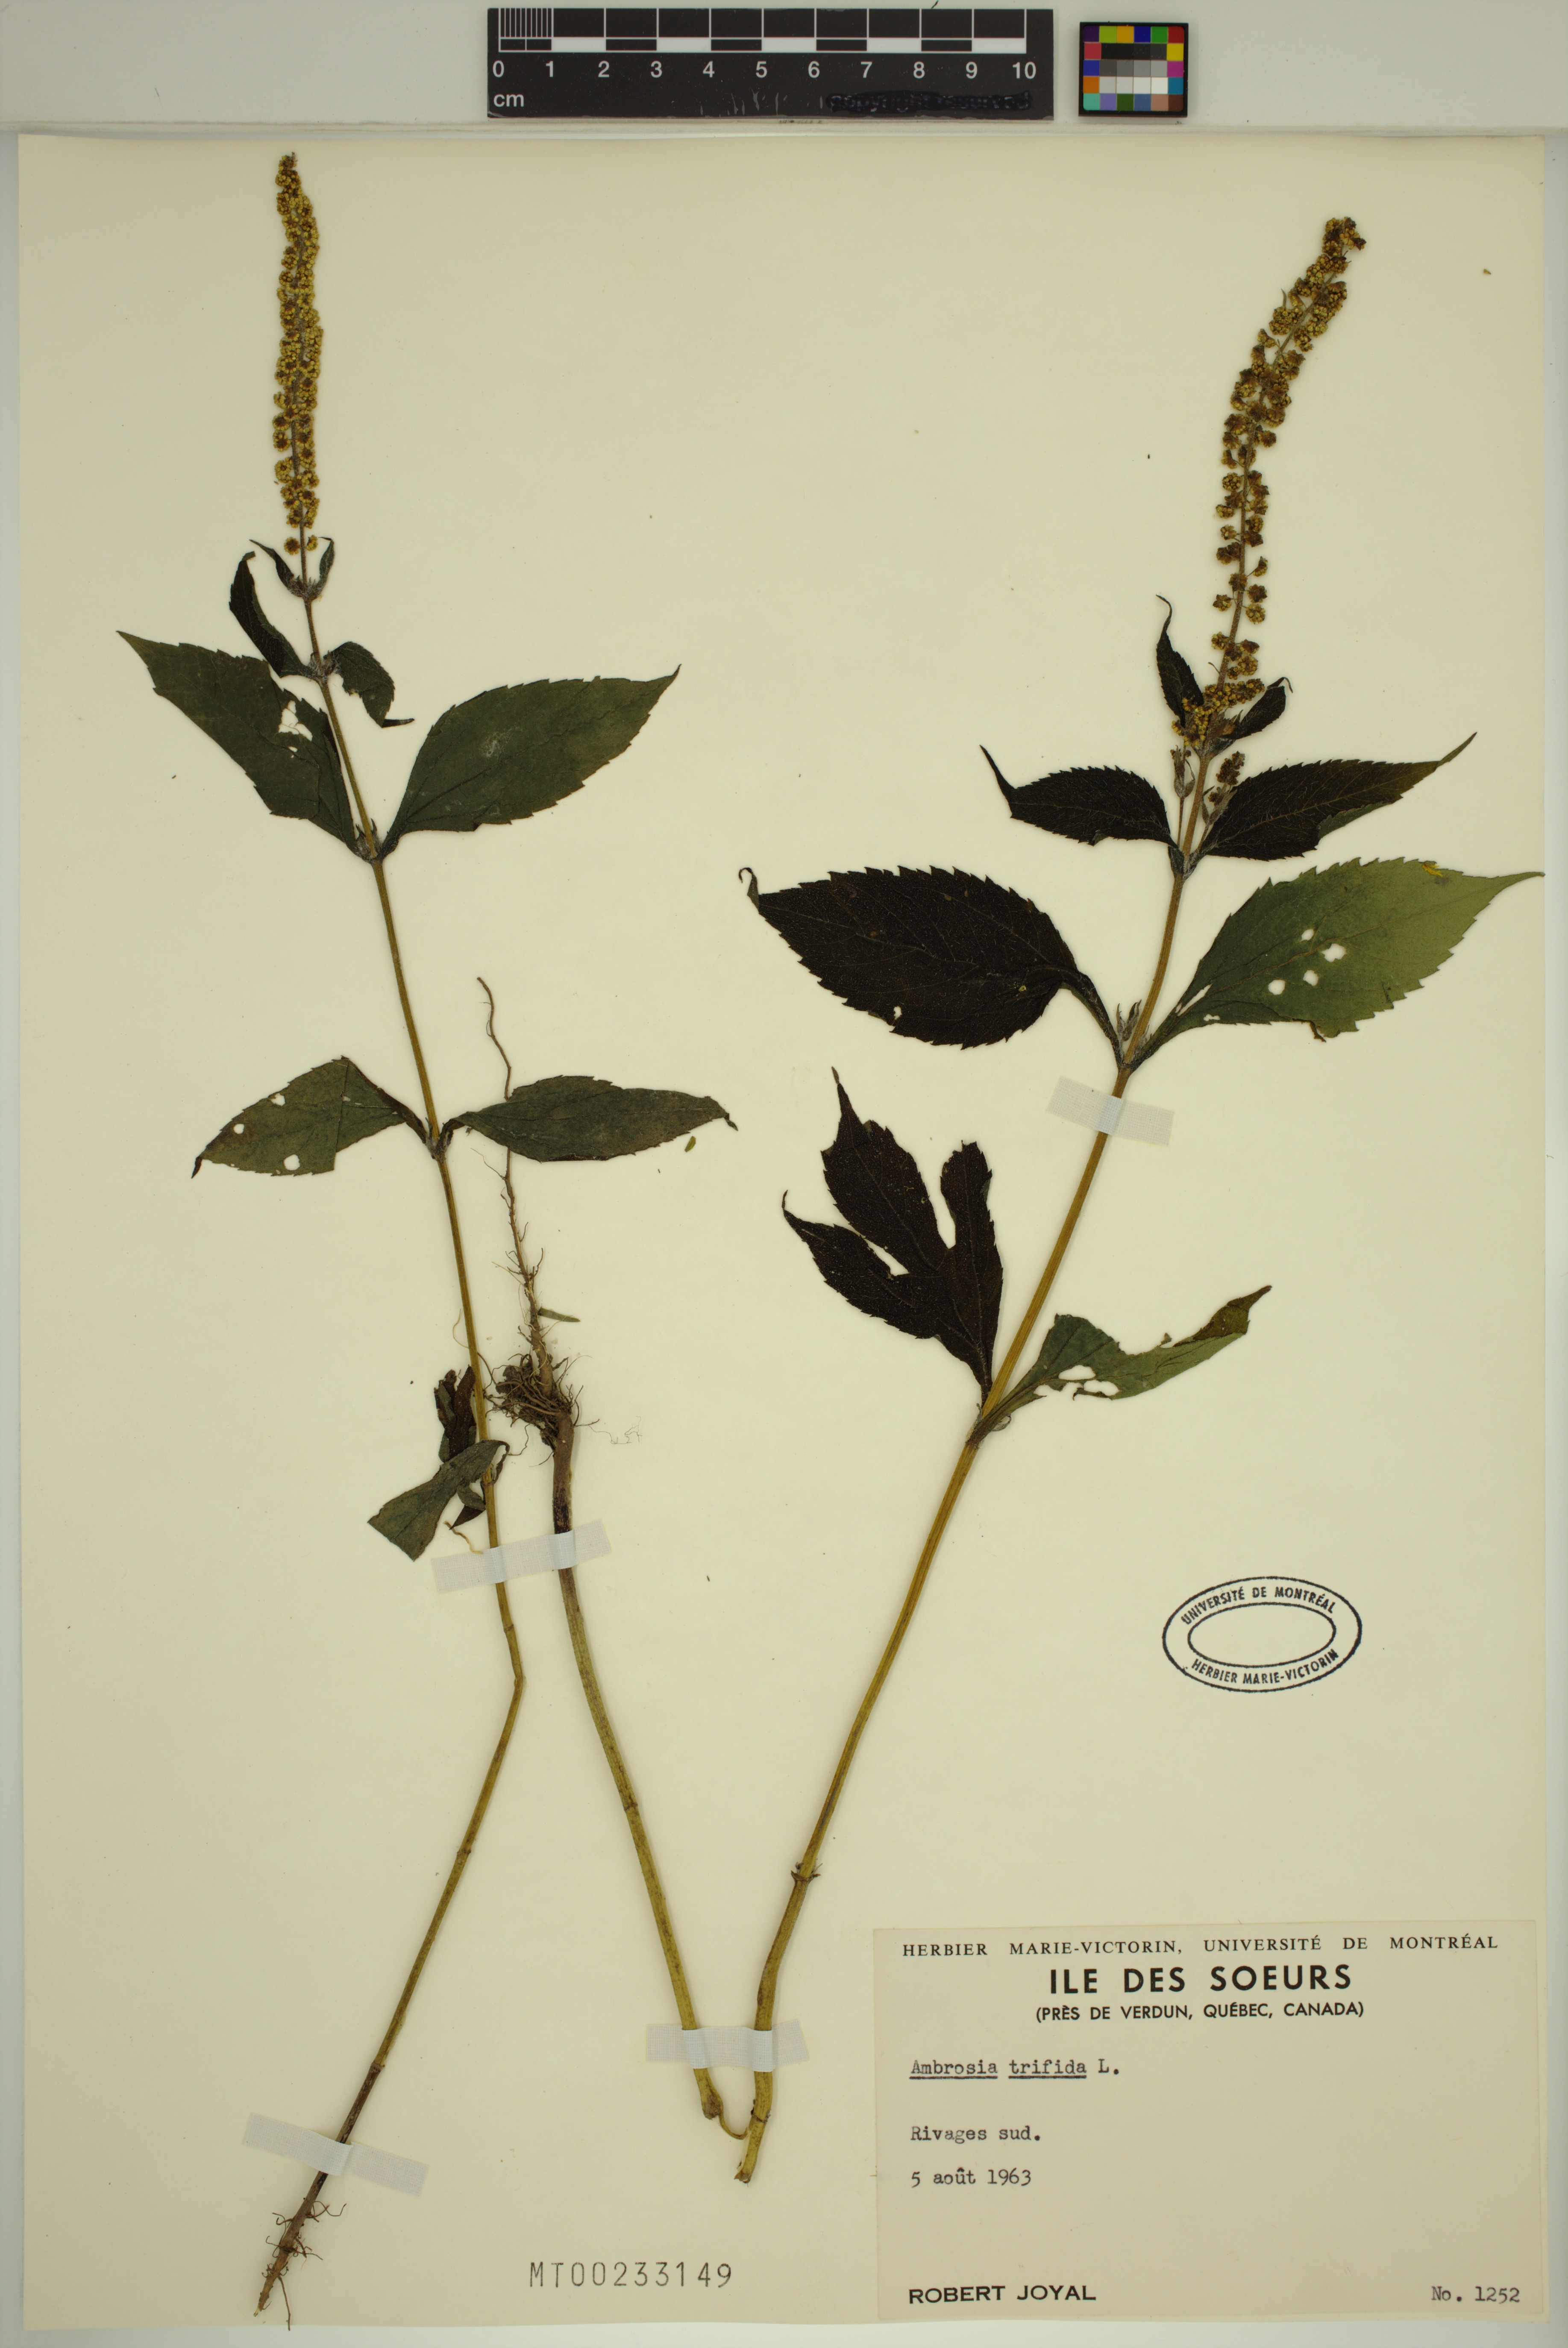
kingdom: Plantae
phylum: Tracheophyta
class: Magnoliopsida
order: Asterales
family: Asteraceae
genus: Ambrosia
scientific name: Ambrosia trifida
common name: Giant ragweed
